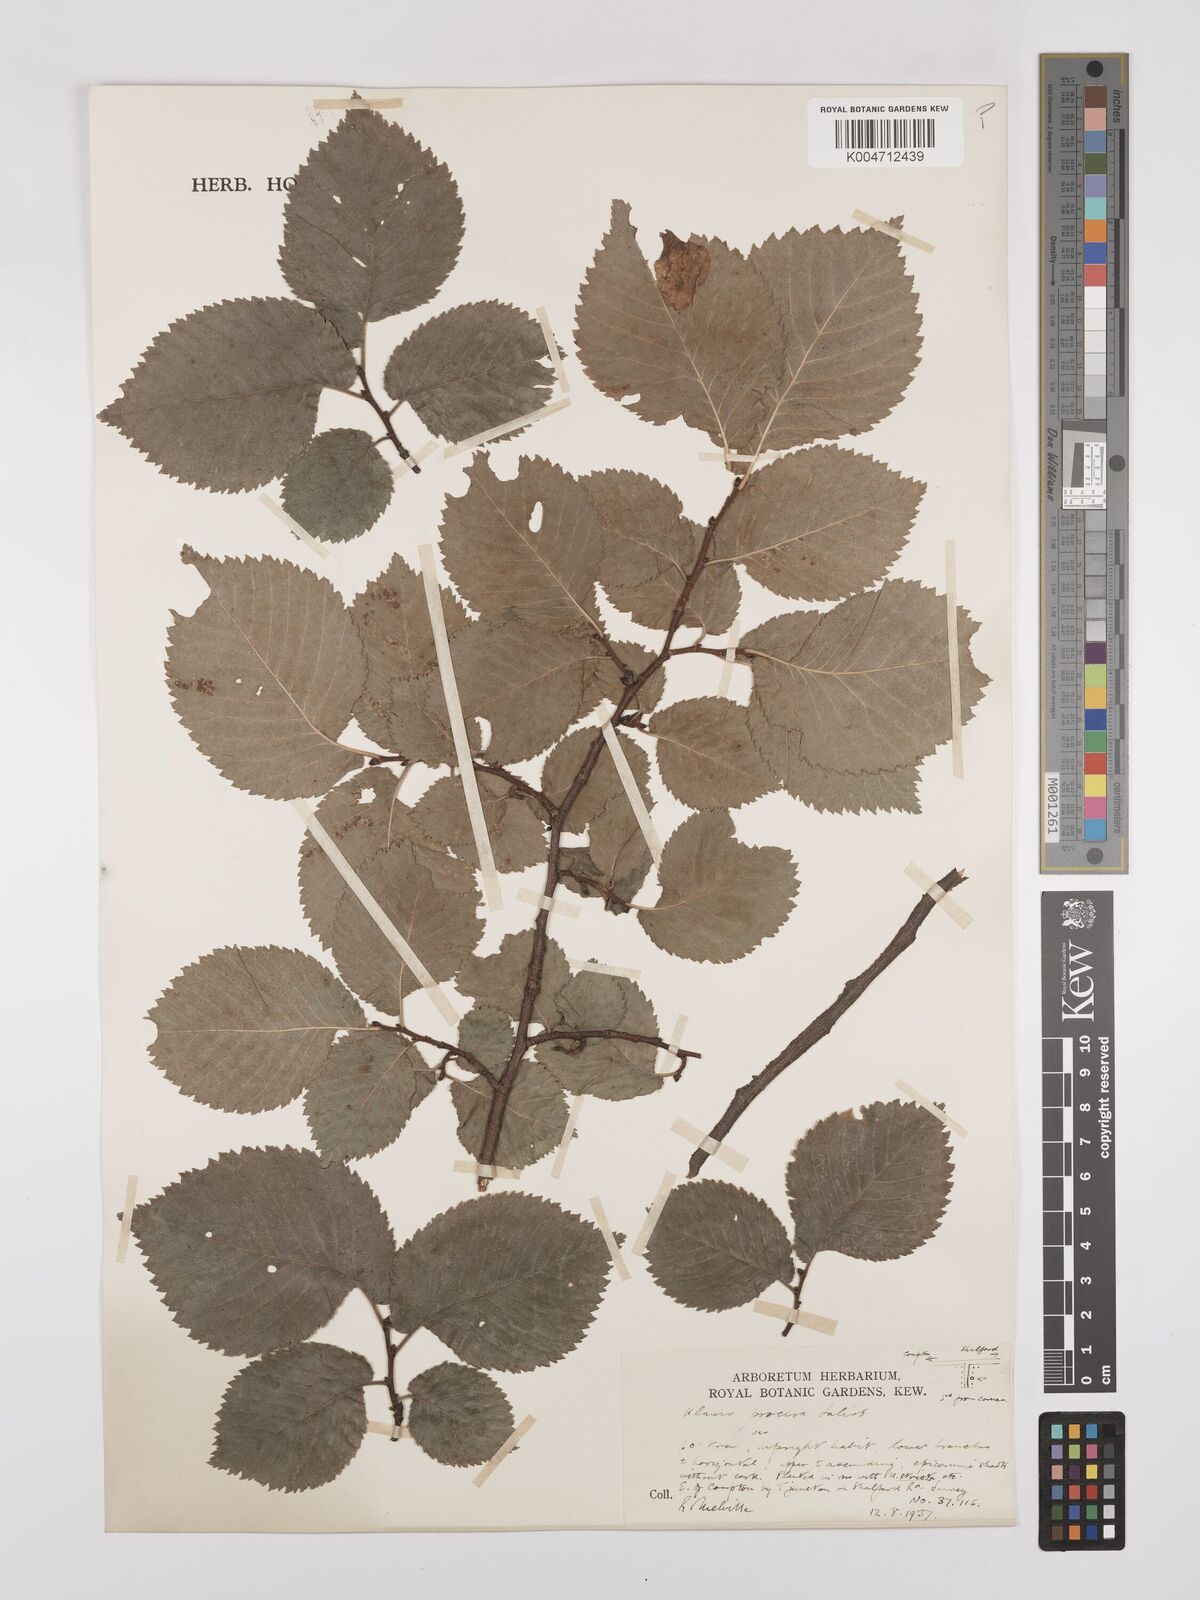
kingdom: Plantae
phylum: Tracheophyta
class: Magnoliopsida
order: Rosales
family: Ulmaceae
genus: Ulmus
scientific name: Ulmus minor
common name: Small-leaved elm
